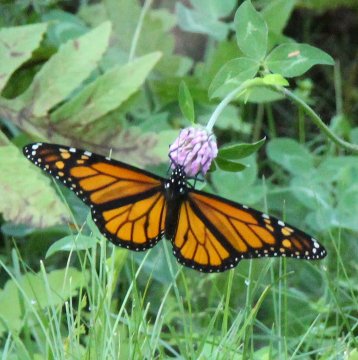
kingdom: Animalia
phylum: Arthropoda
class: Insecta
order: Lepidoptera
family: Nymphalidae
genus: Danaus
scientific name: Danaus plexippus
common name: Monarch
